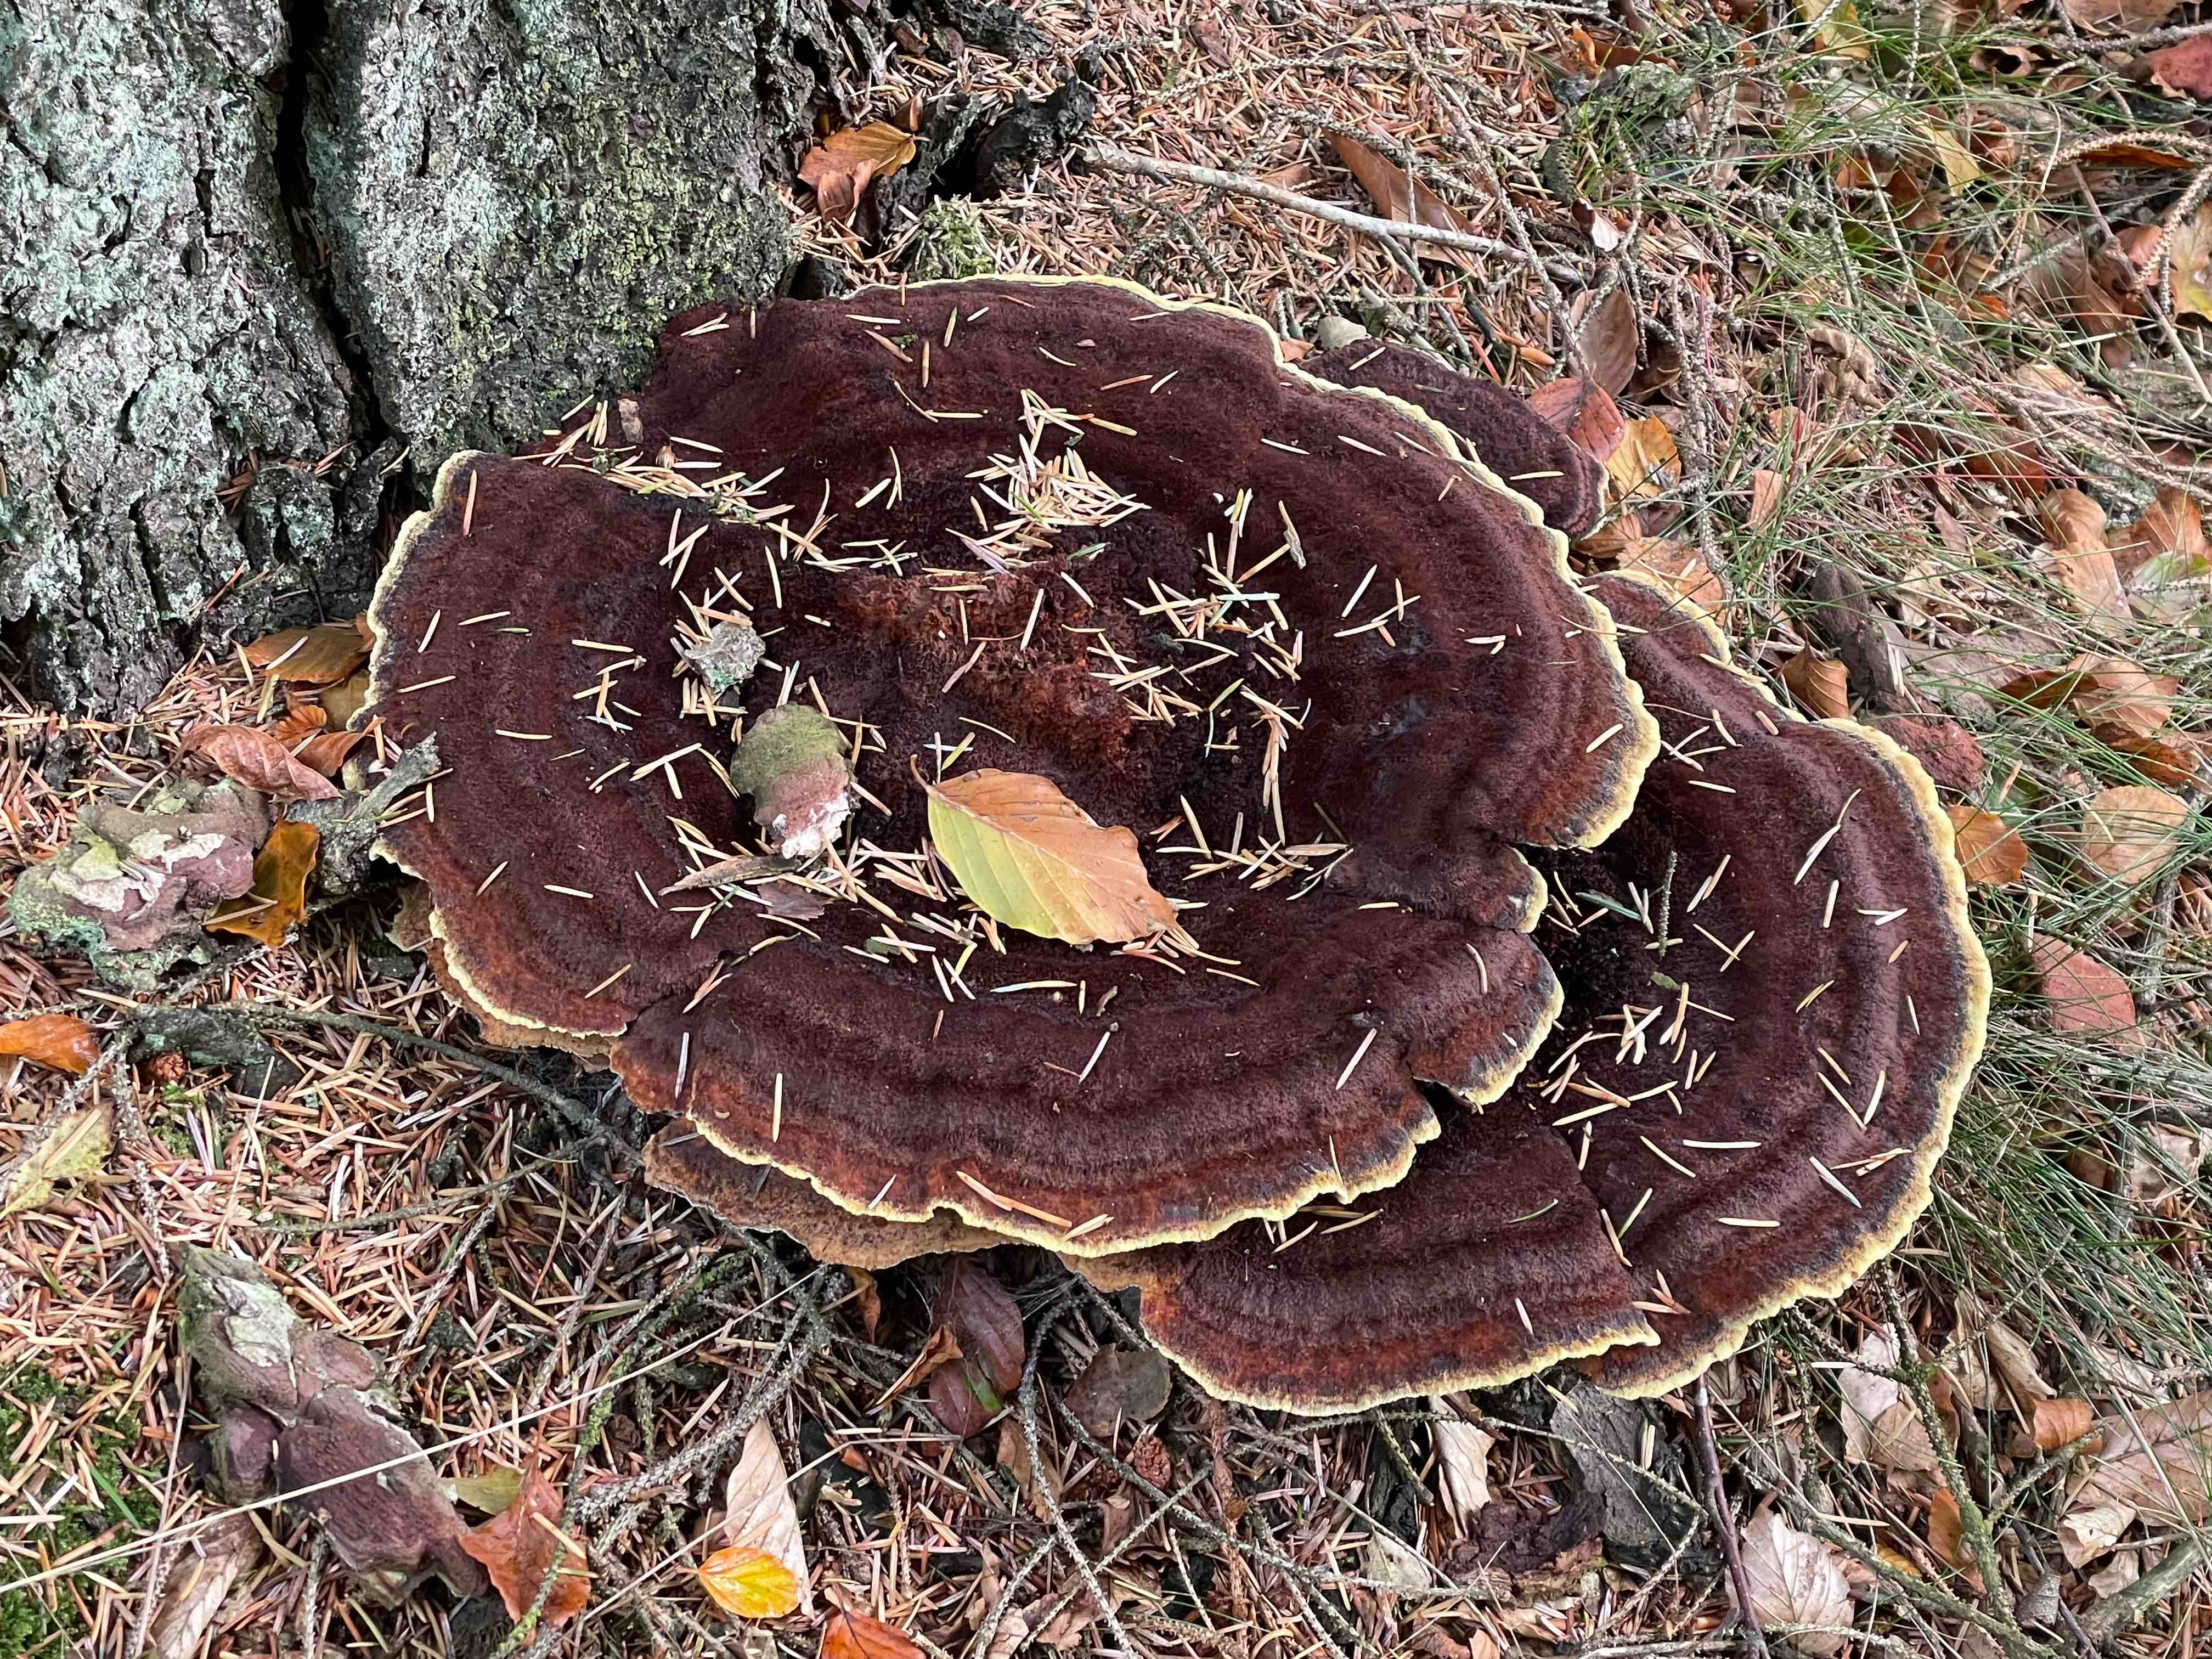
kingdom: Fungi
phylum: Basidiomycota
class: Agaricomycetes
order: Polyporales
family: Laetiporaceae
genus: Phaeolus
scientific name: Phaeolus schweinitzii
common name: brunporesvamp
